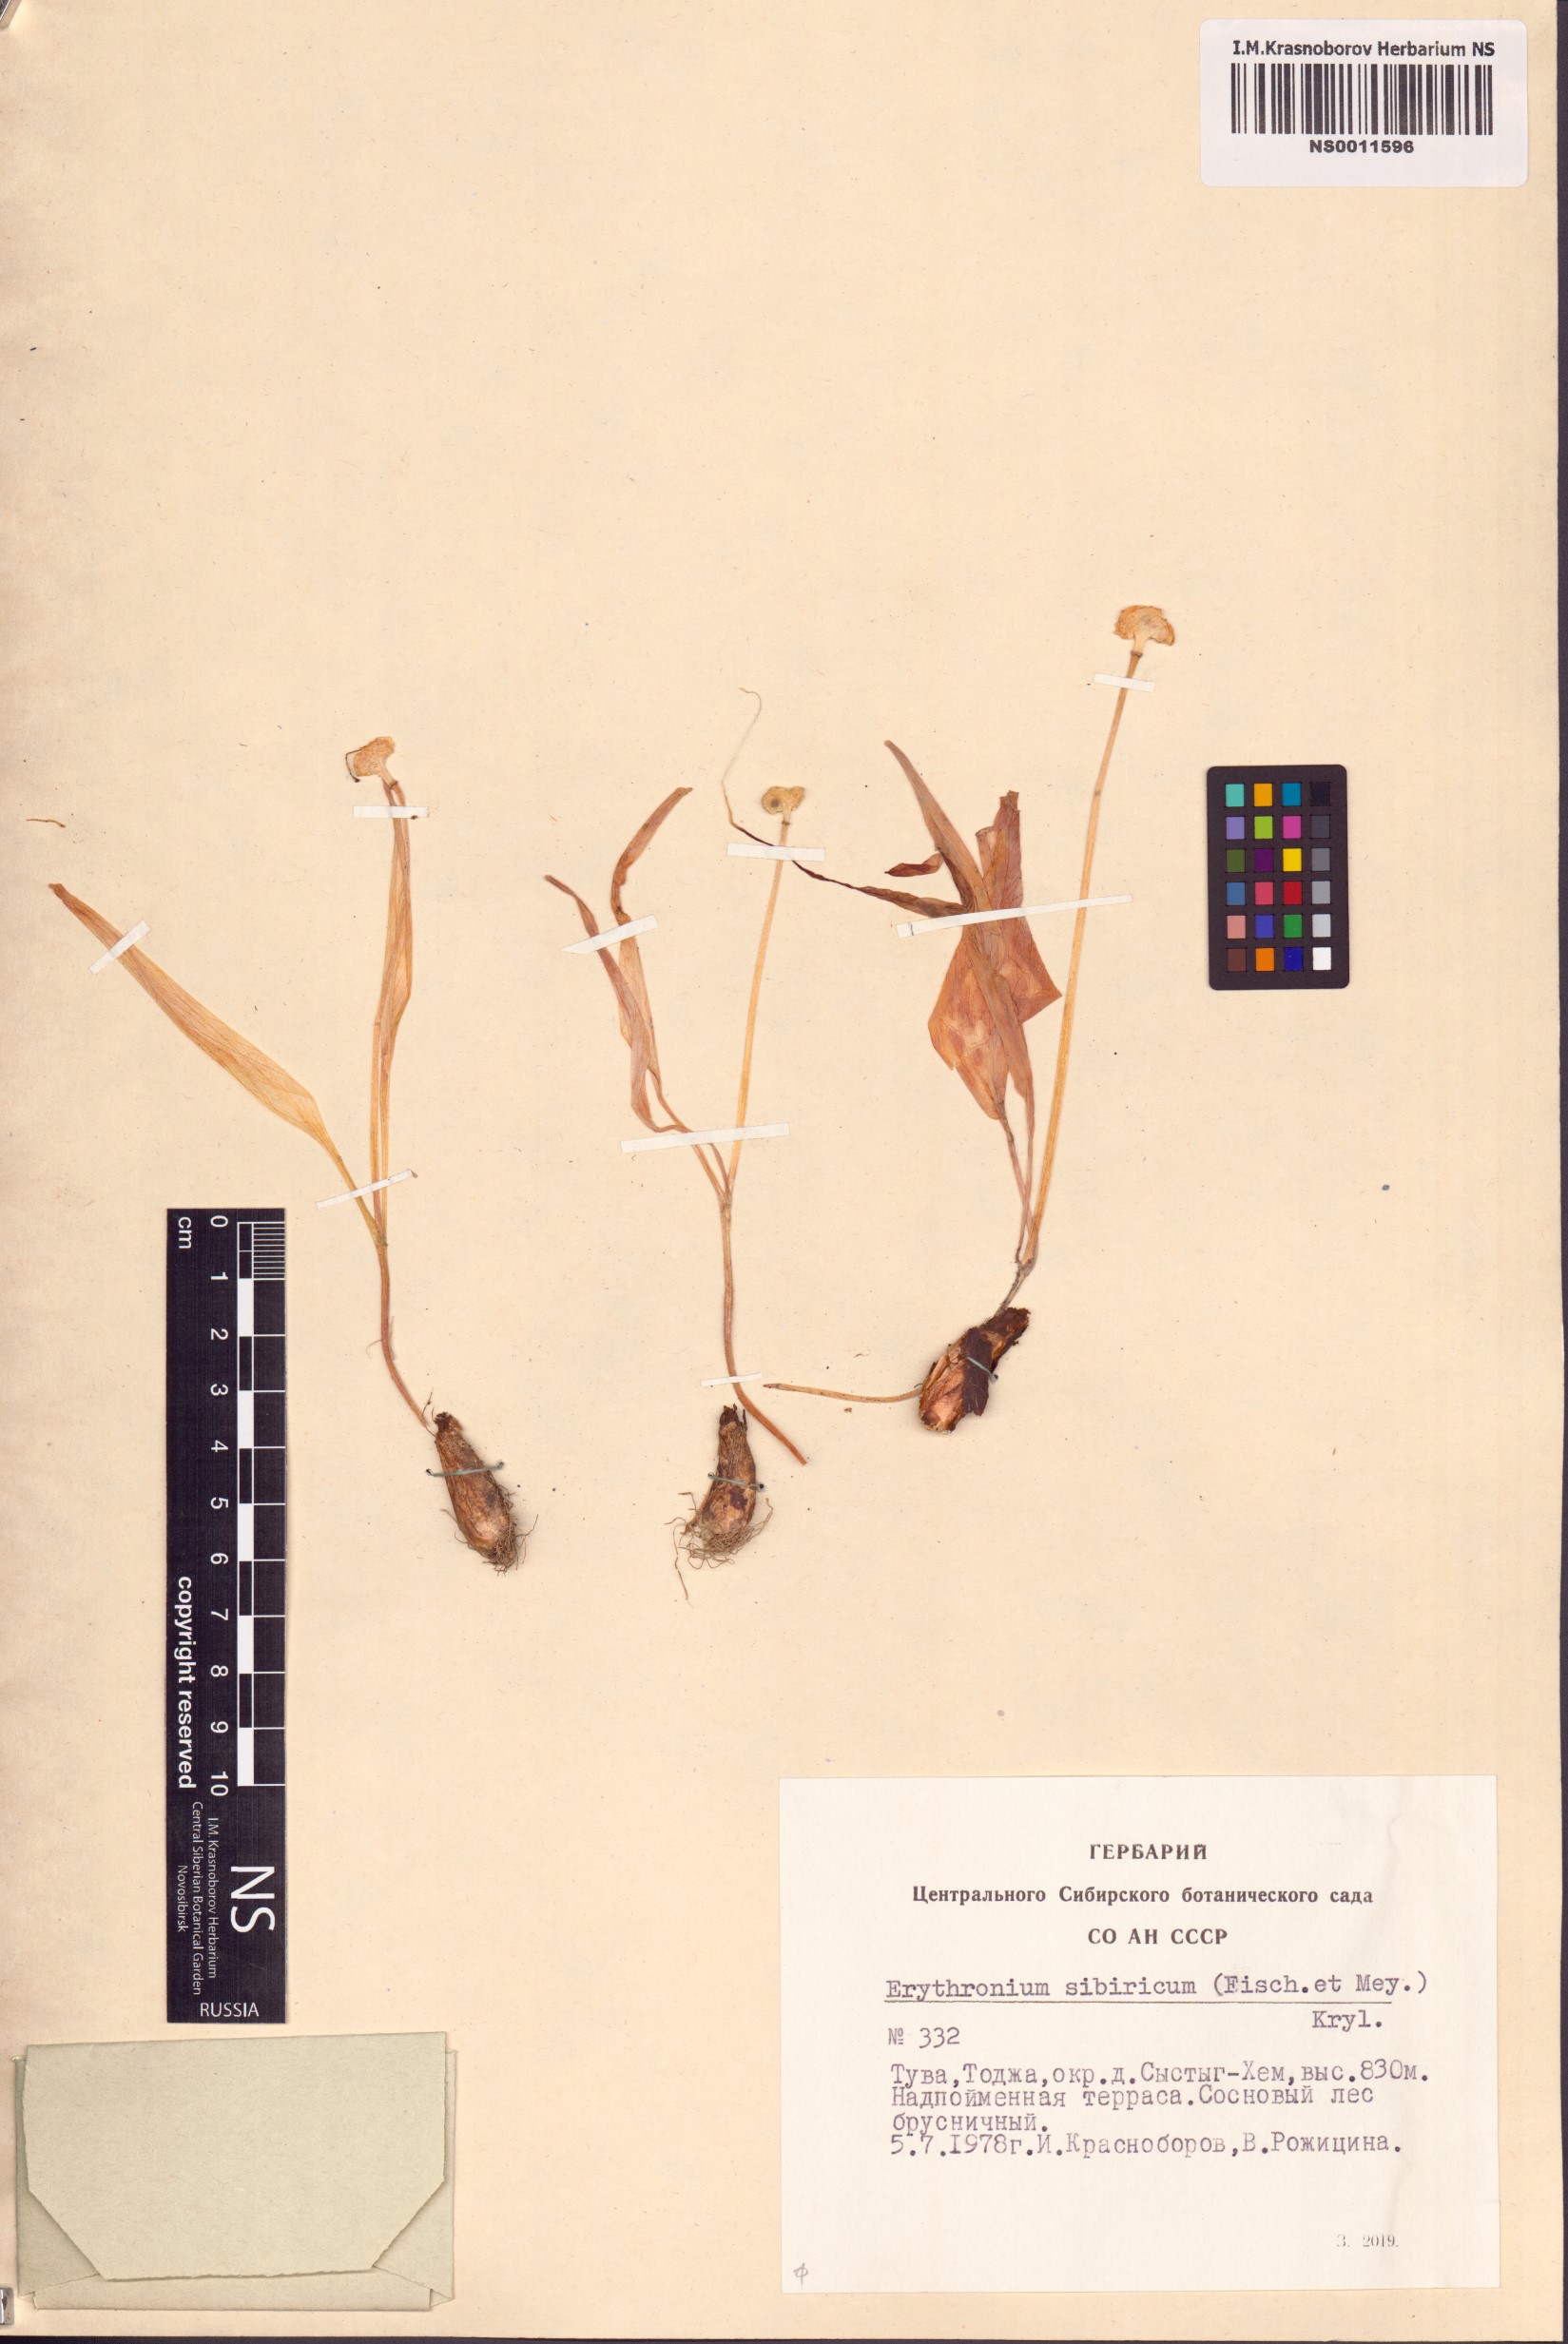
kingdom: Plantae
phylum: Tracheophyta
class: Liliopsida
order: Liliales
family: Liliaceae
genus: Erythronium
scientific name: Erythronium sibiricum
